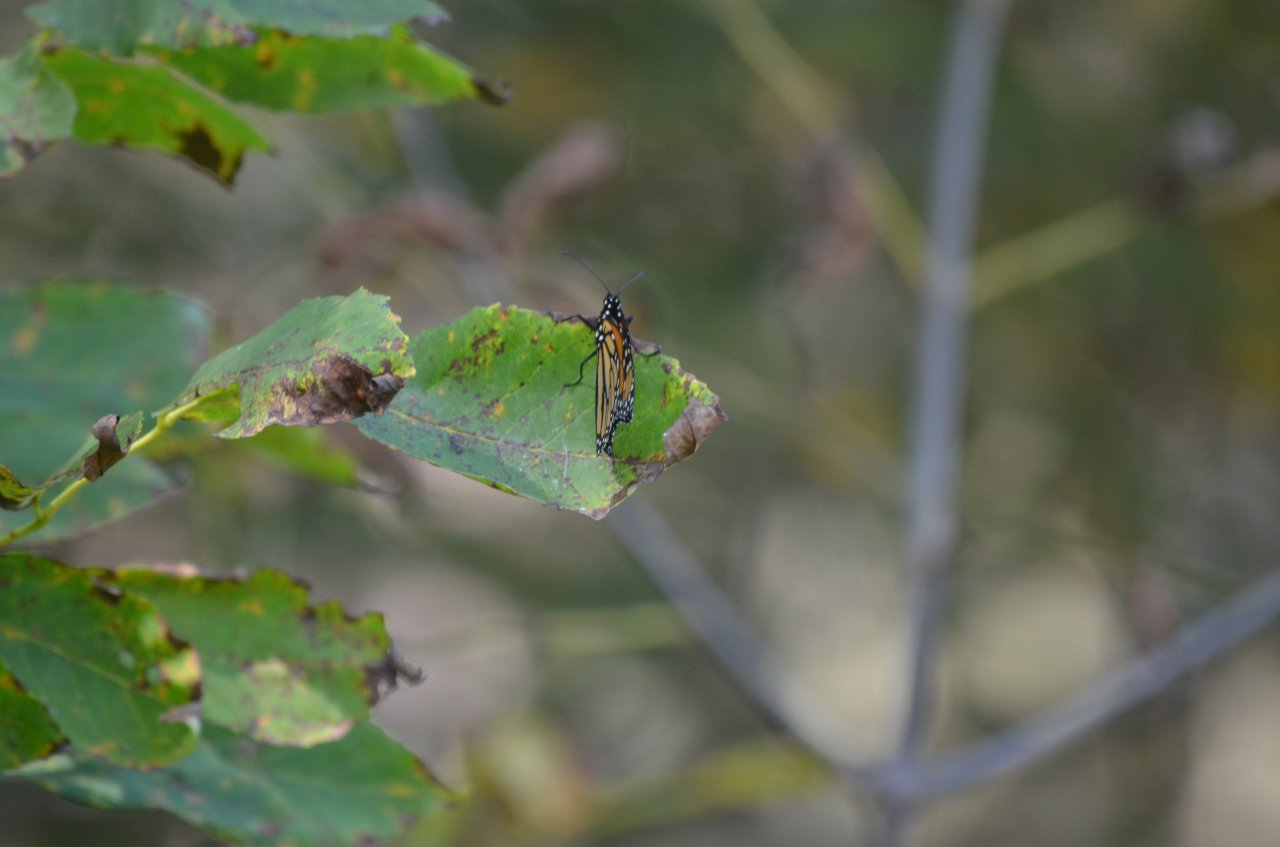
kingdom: Animalia
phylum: Arthropoda
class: Insecta
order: Lepidoptera
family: Nymphalidae
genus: Danaus
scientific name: Danaus plexippus
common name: Monarch
